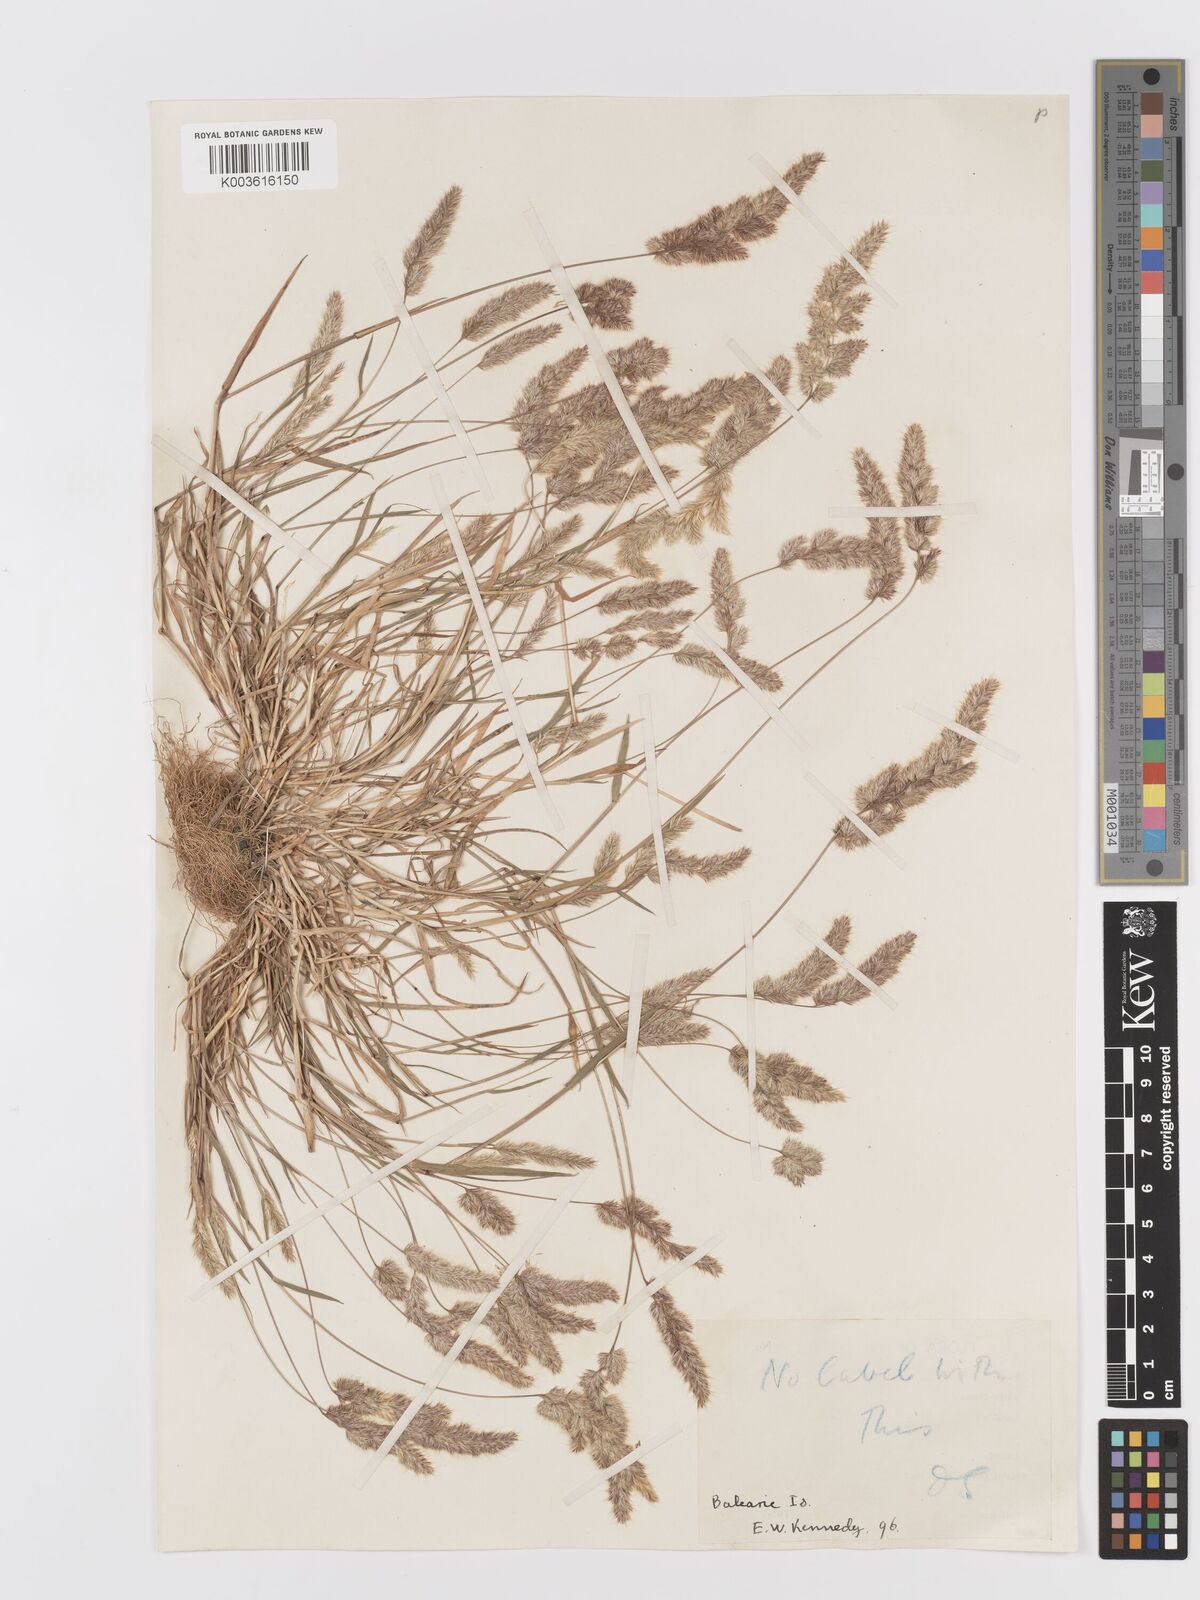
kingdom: Plantae
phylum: Tracheophyta
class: Liliopsida
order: Poales
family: Poaceae
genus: Trisetaria
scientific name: Trisetaria panicea
